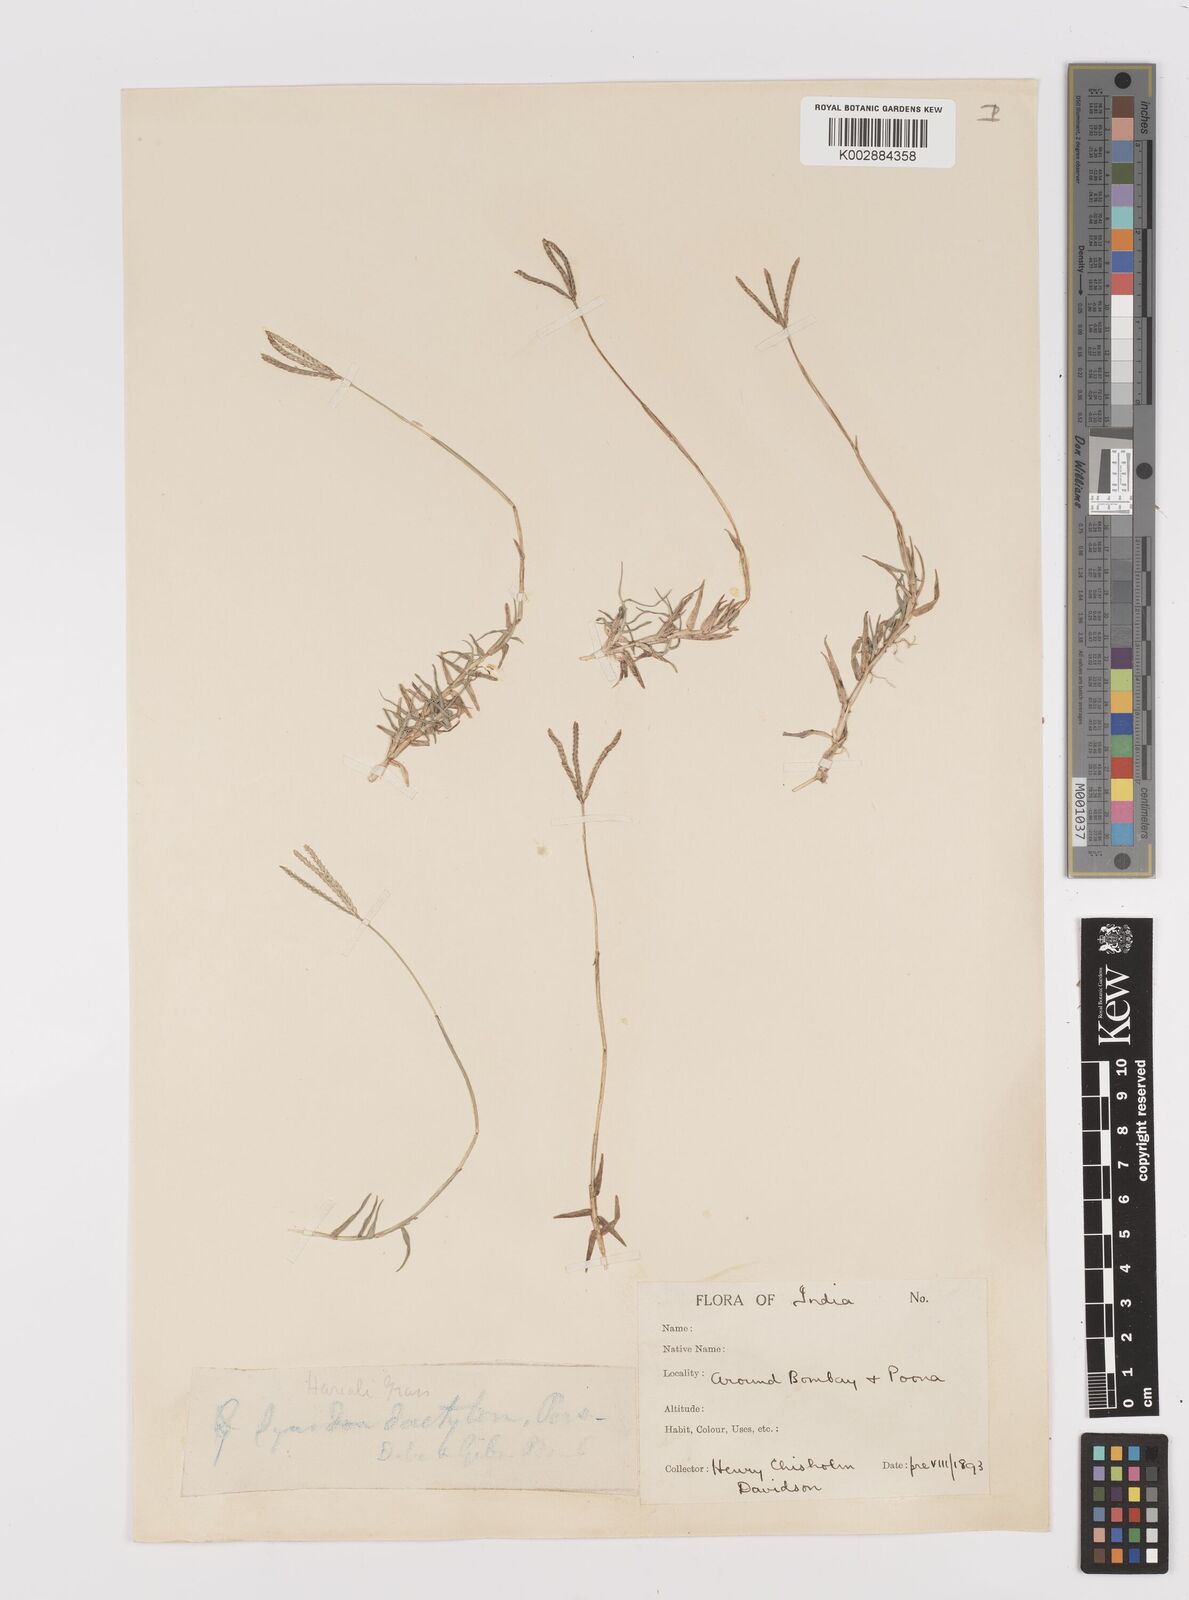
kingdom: Plantae
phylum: Tracheophyta
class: Liliopsida
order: Poales
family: Poaceae
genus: Cynodon
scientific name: Cynodon dactylon
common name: Bermuda grass
